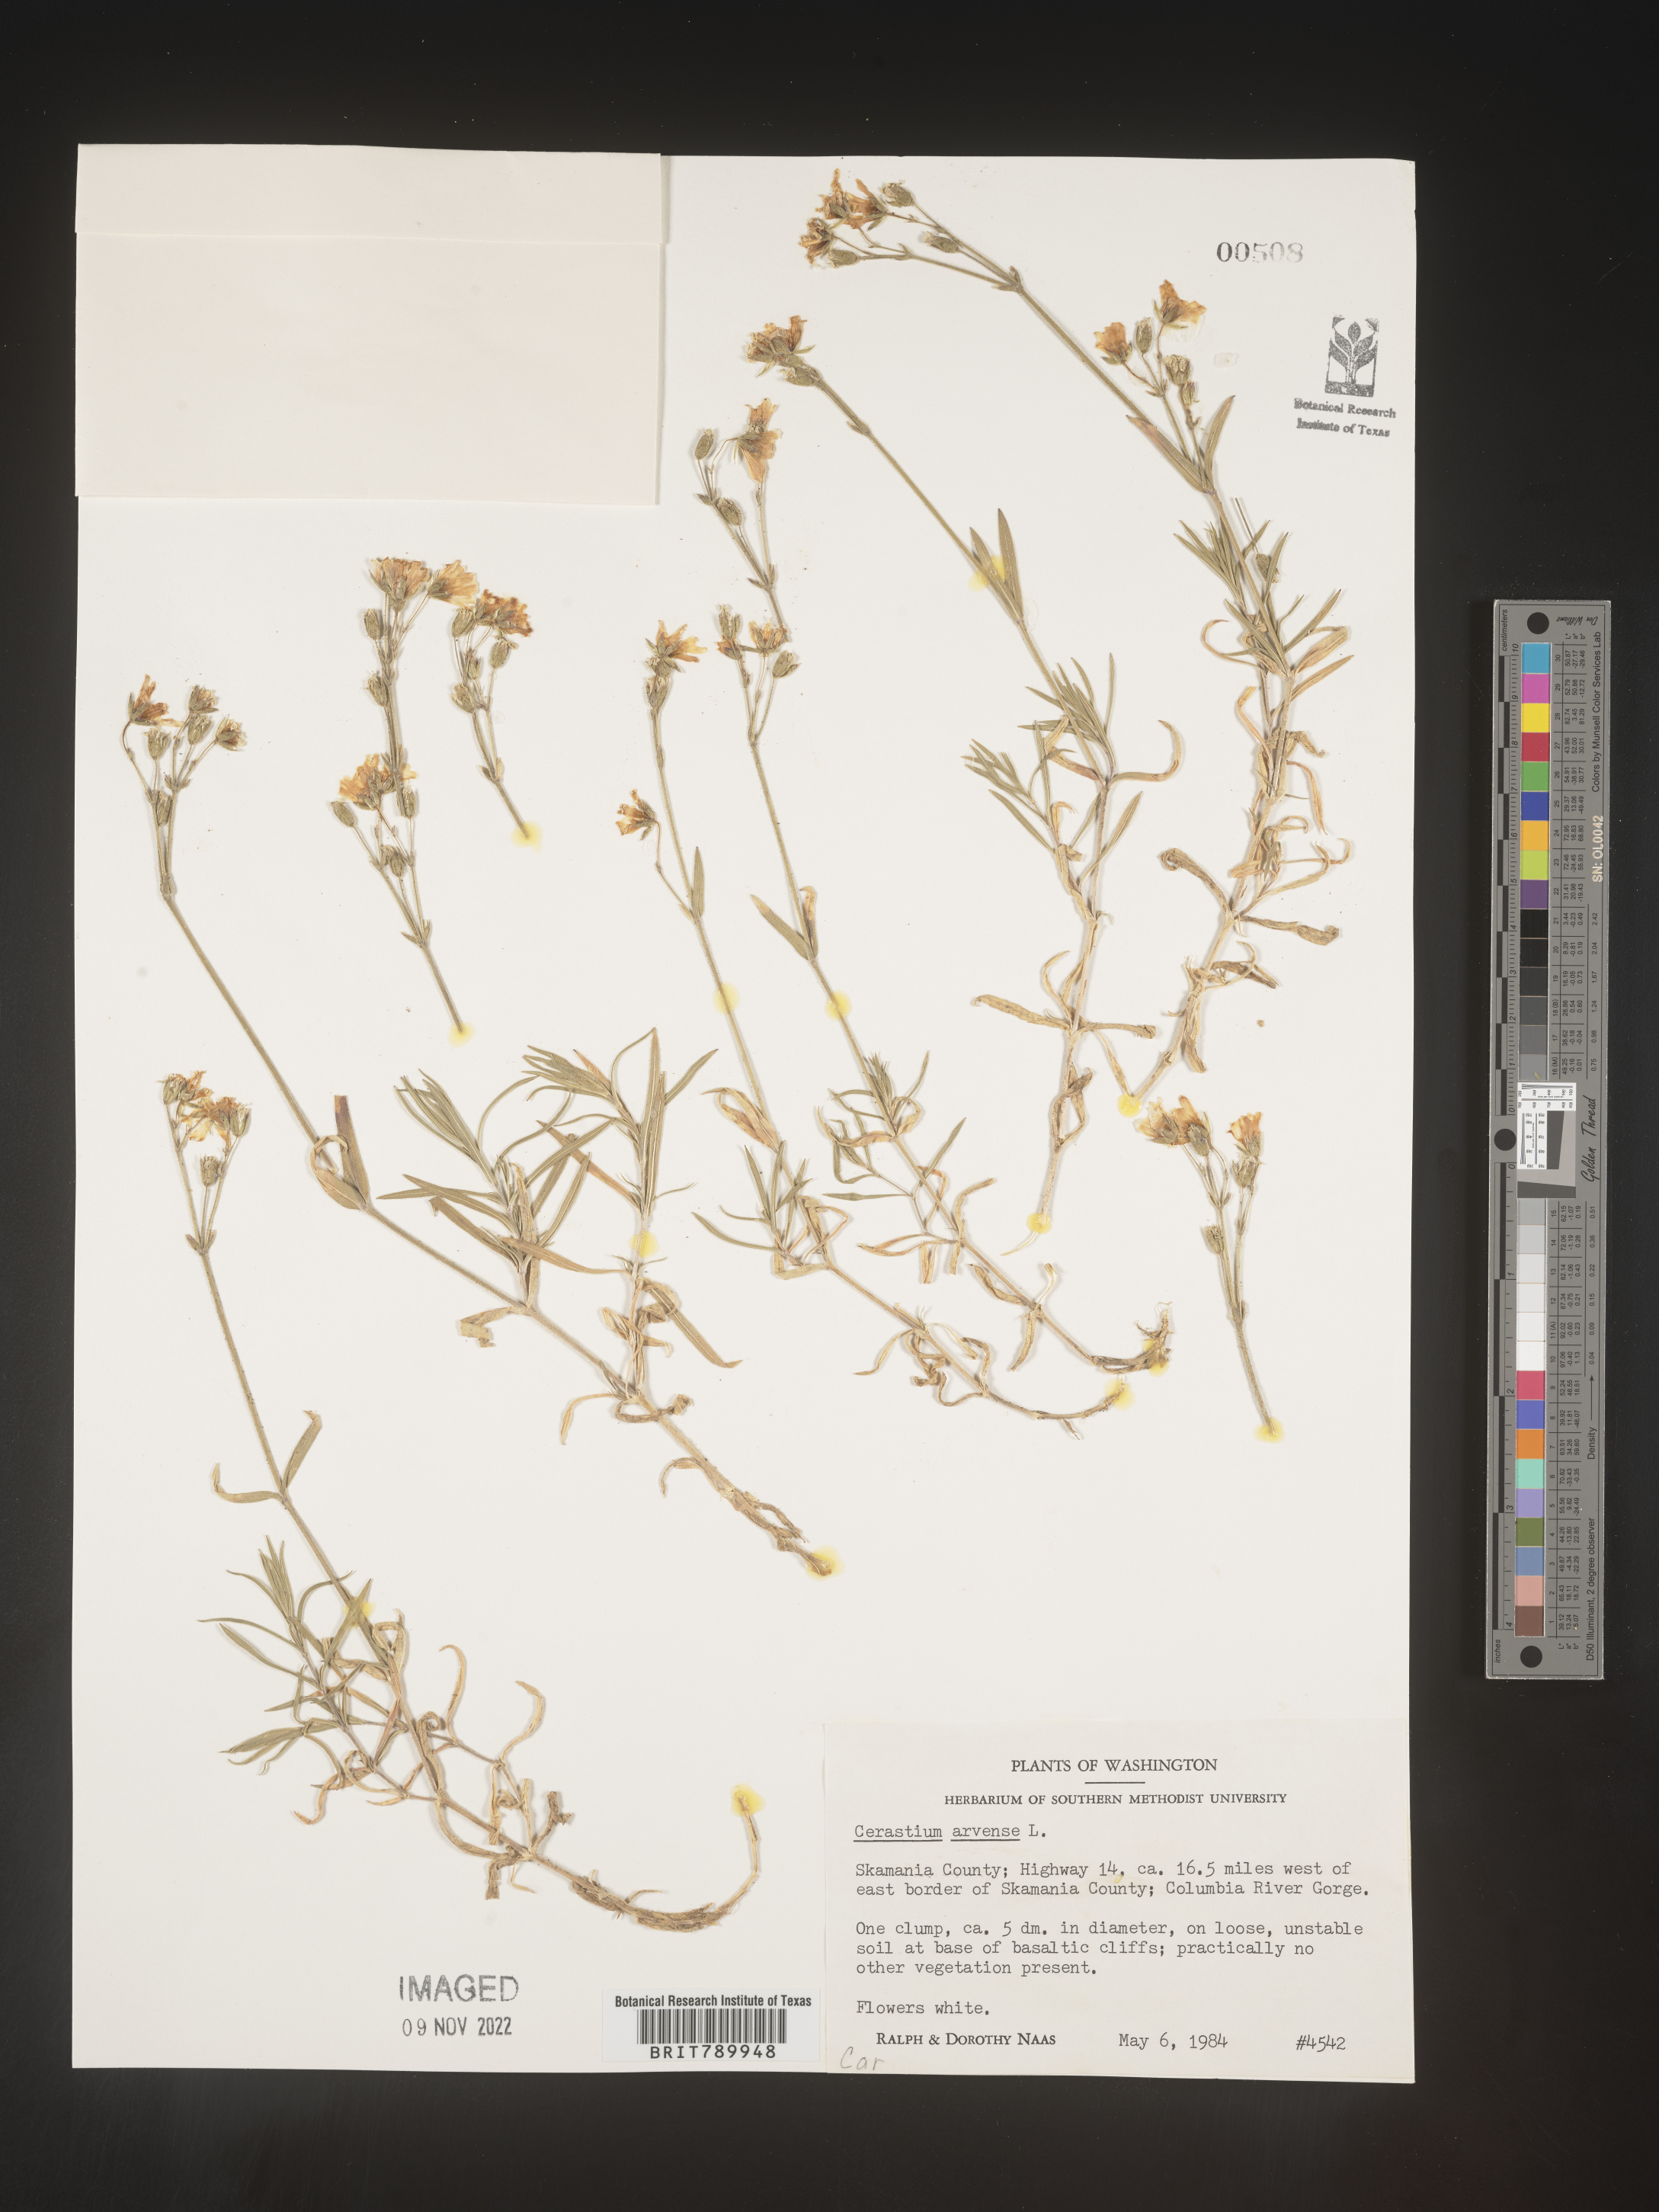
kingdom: Plantae
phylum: Tracheophyta
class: Magnoliopsida
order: Caryophyllales
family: Caryophyllaceae
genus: Cerastium
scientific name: Cerastium arvense
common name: Field mouse-ear
